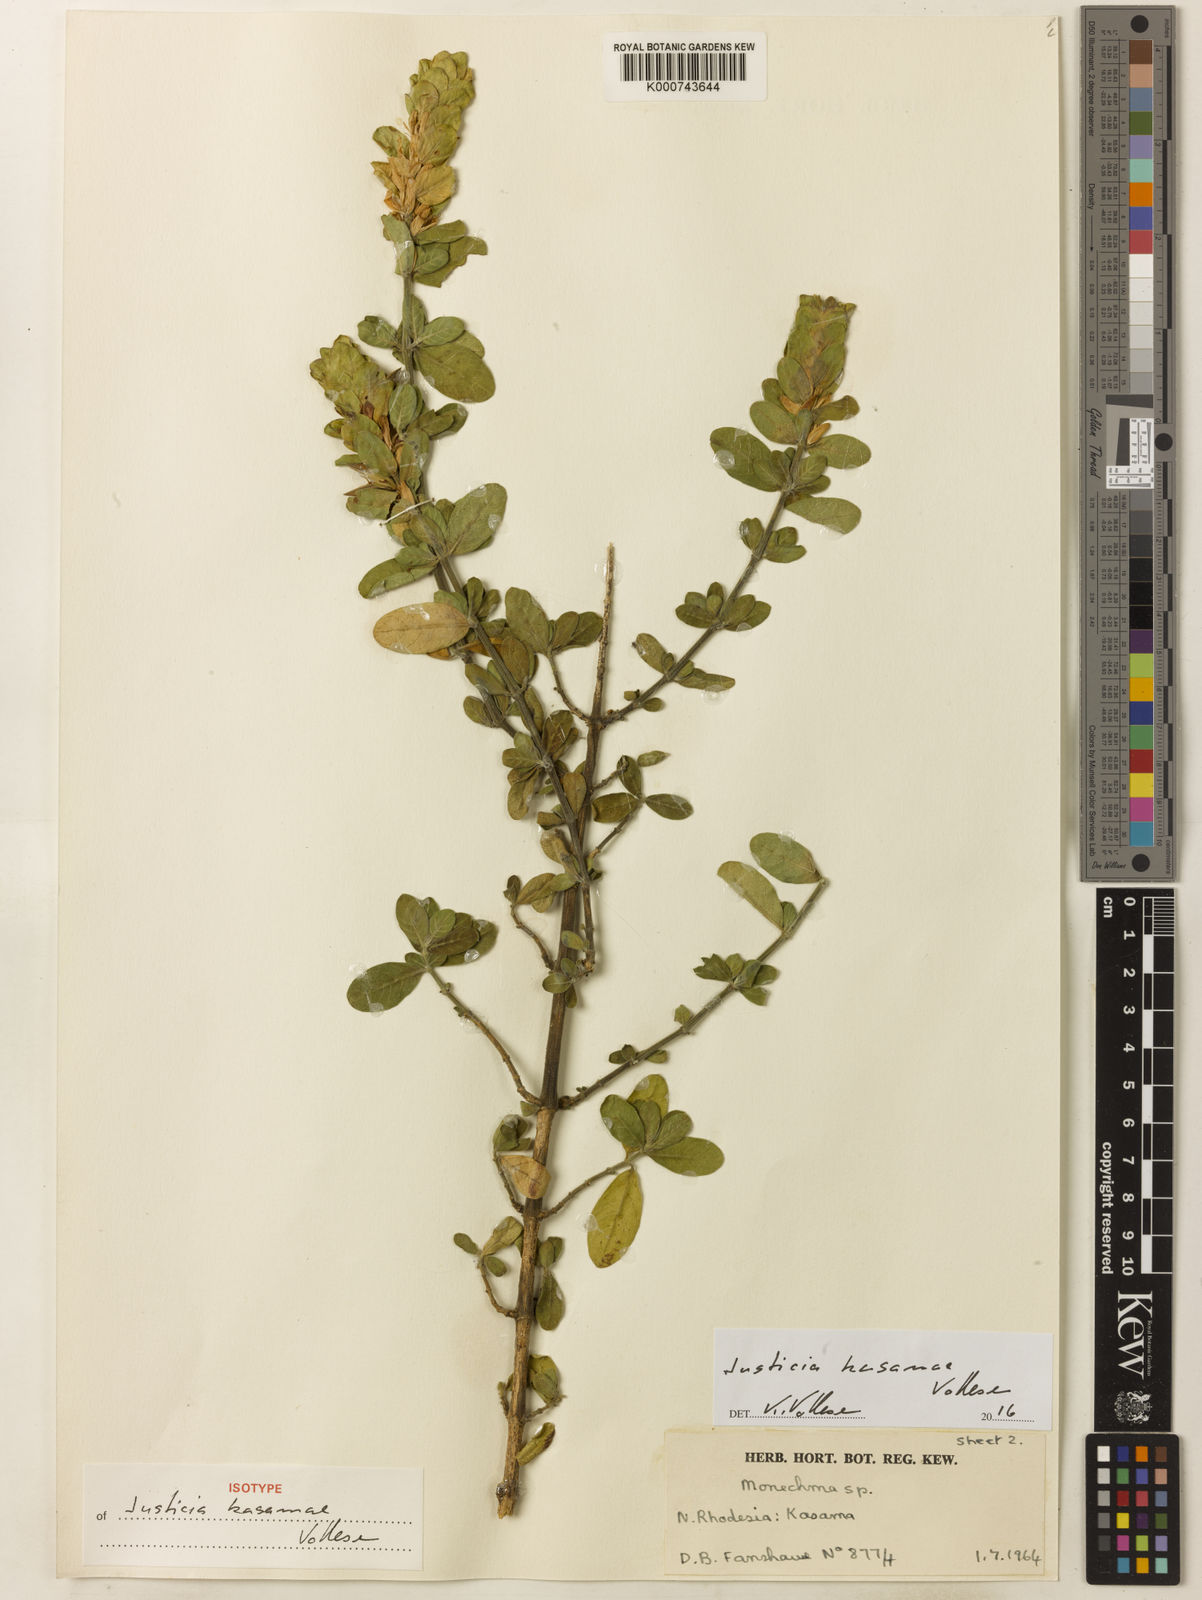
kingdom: Plantae
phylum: Tracheophyta
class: Magnoliopsida
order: Lamiales
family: Acanthaceae
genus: Monechma
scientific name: Monechma kasamae
